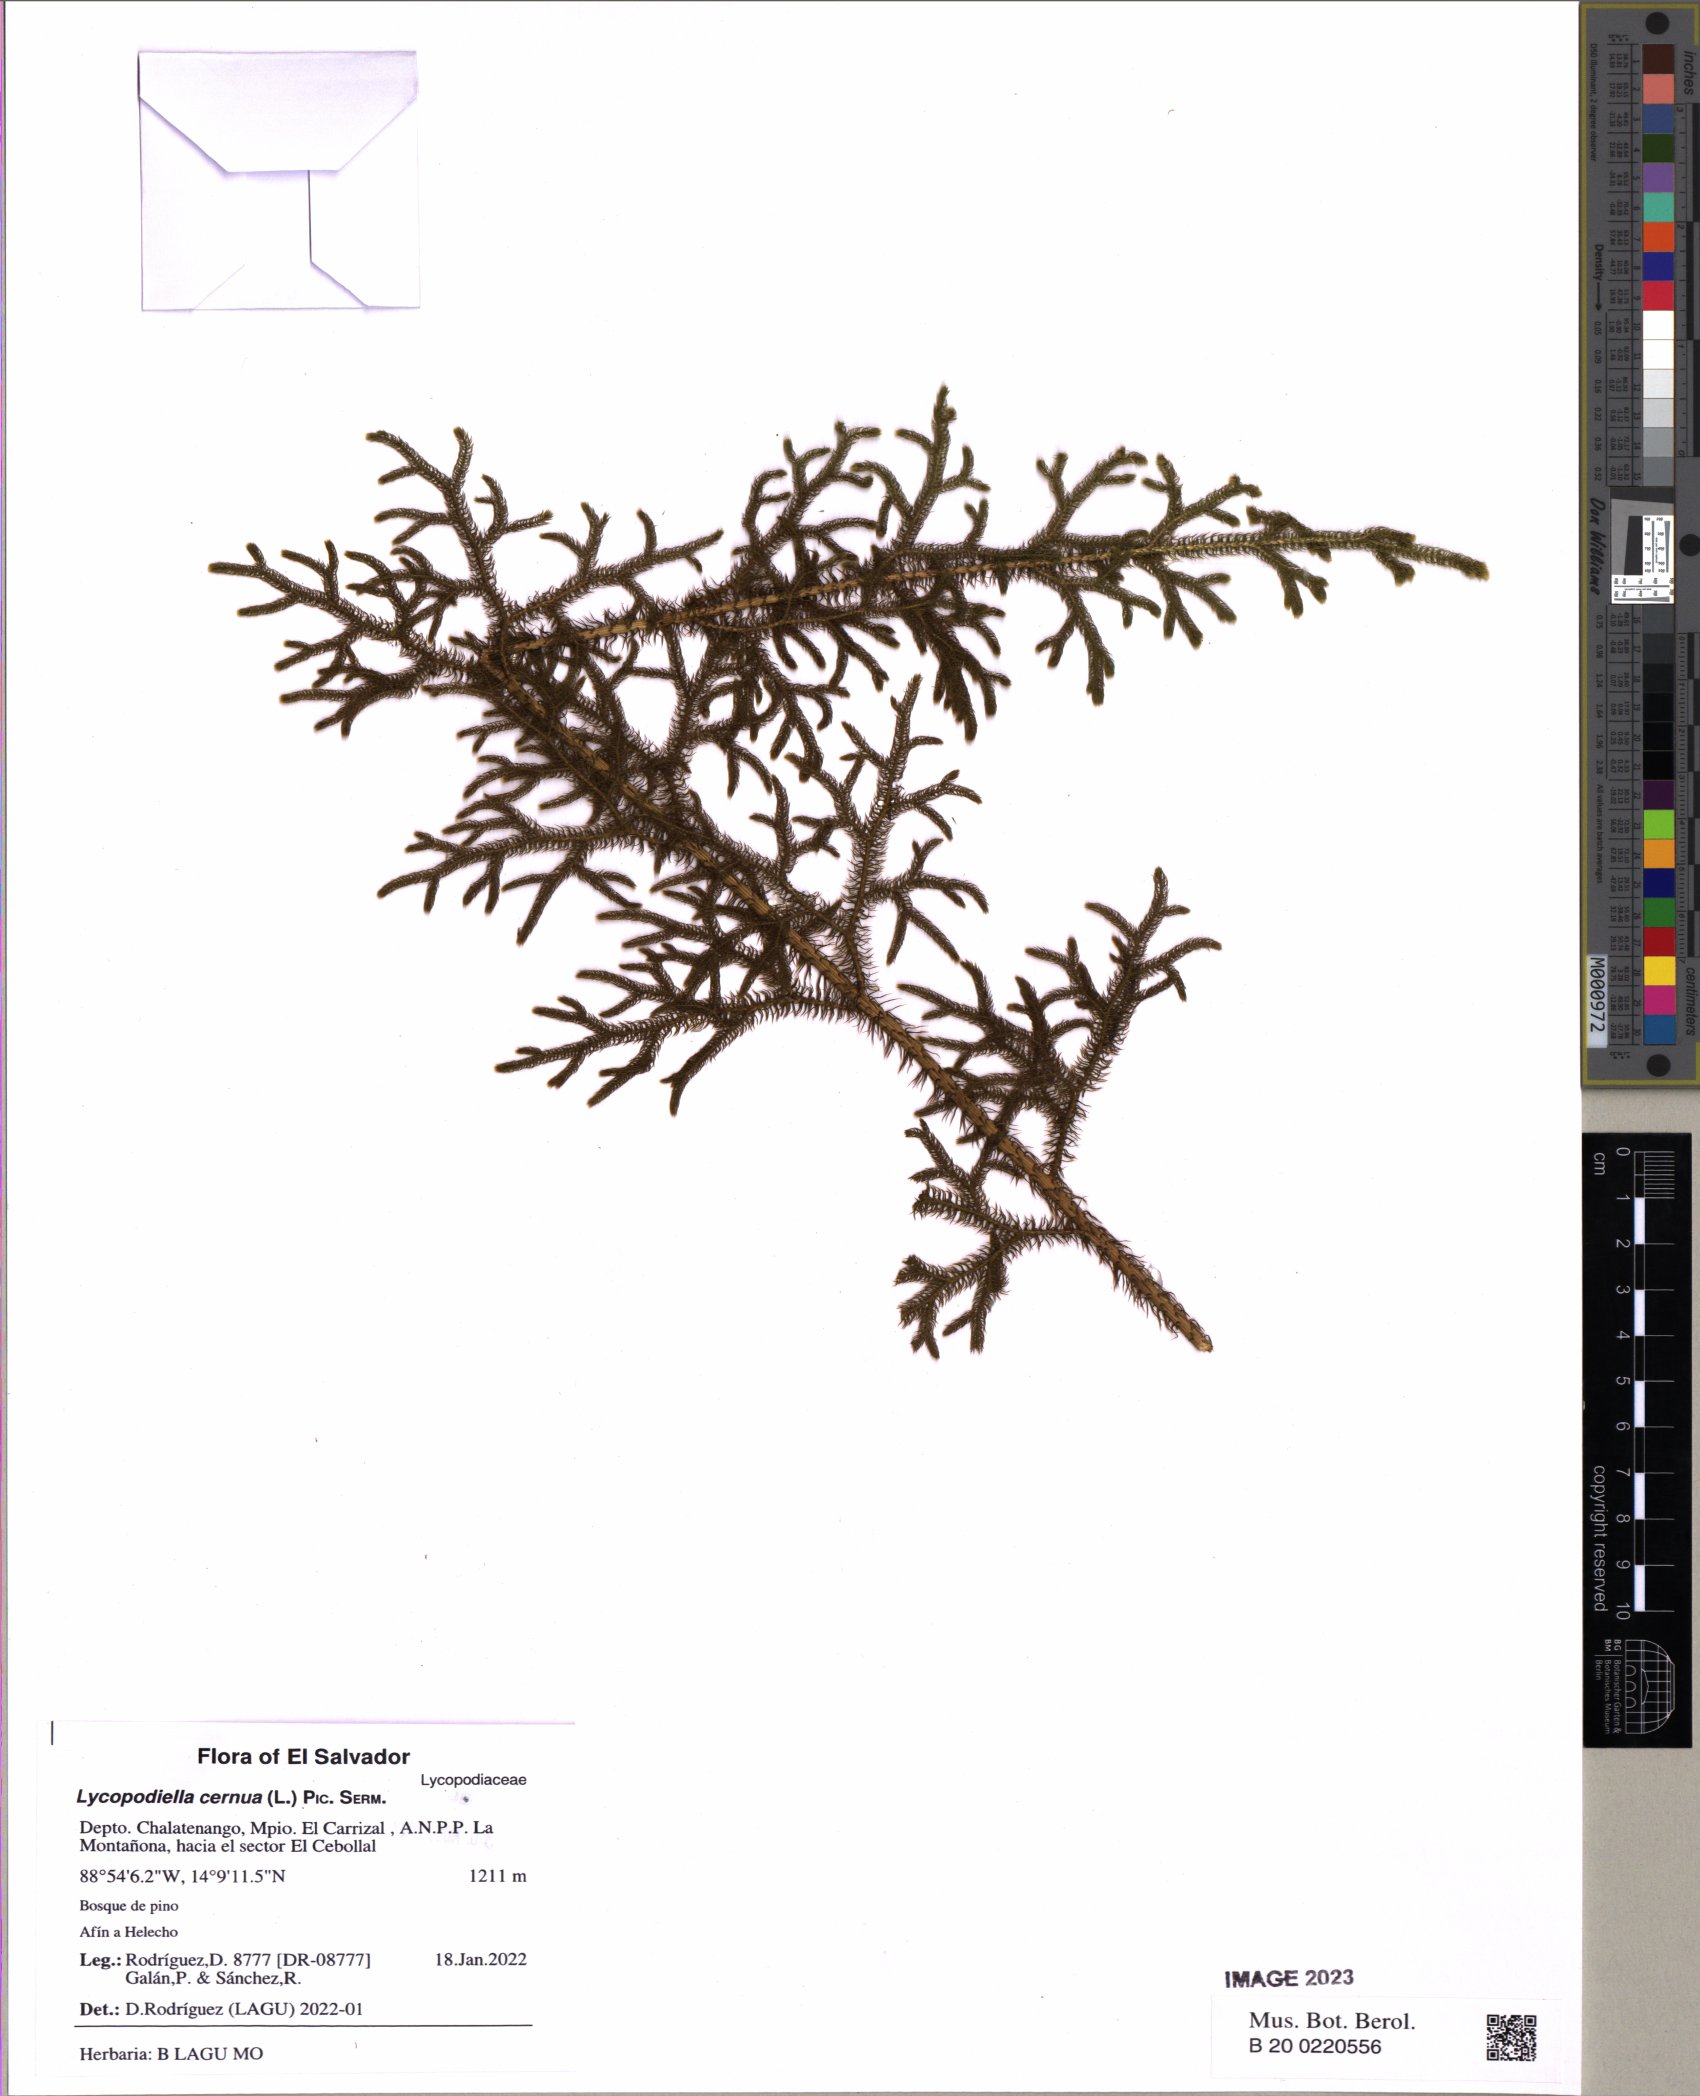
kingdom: Plantae
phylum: Tracheophyta
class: Lycopodiopsida
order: Lycopodiales
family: Lycopodiaceae
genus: Palhinhaea
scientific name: Palhinhaea cernua
